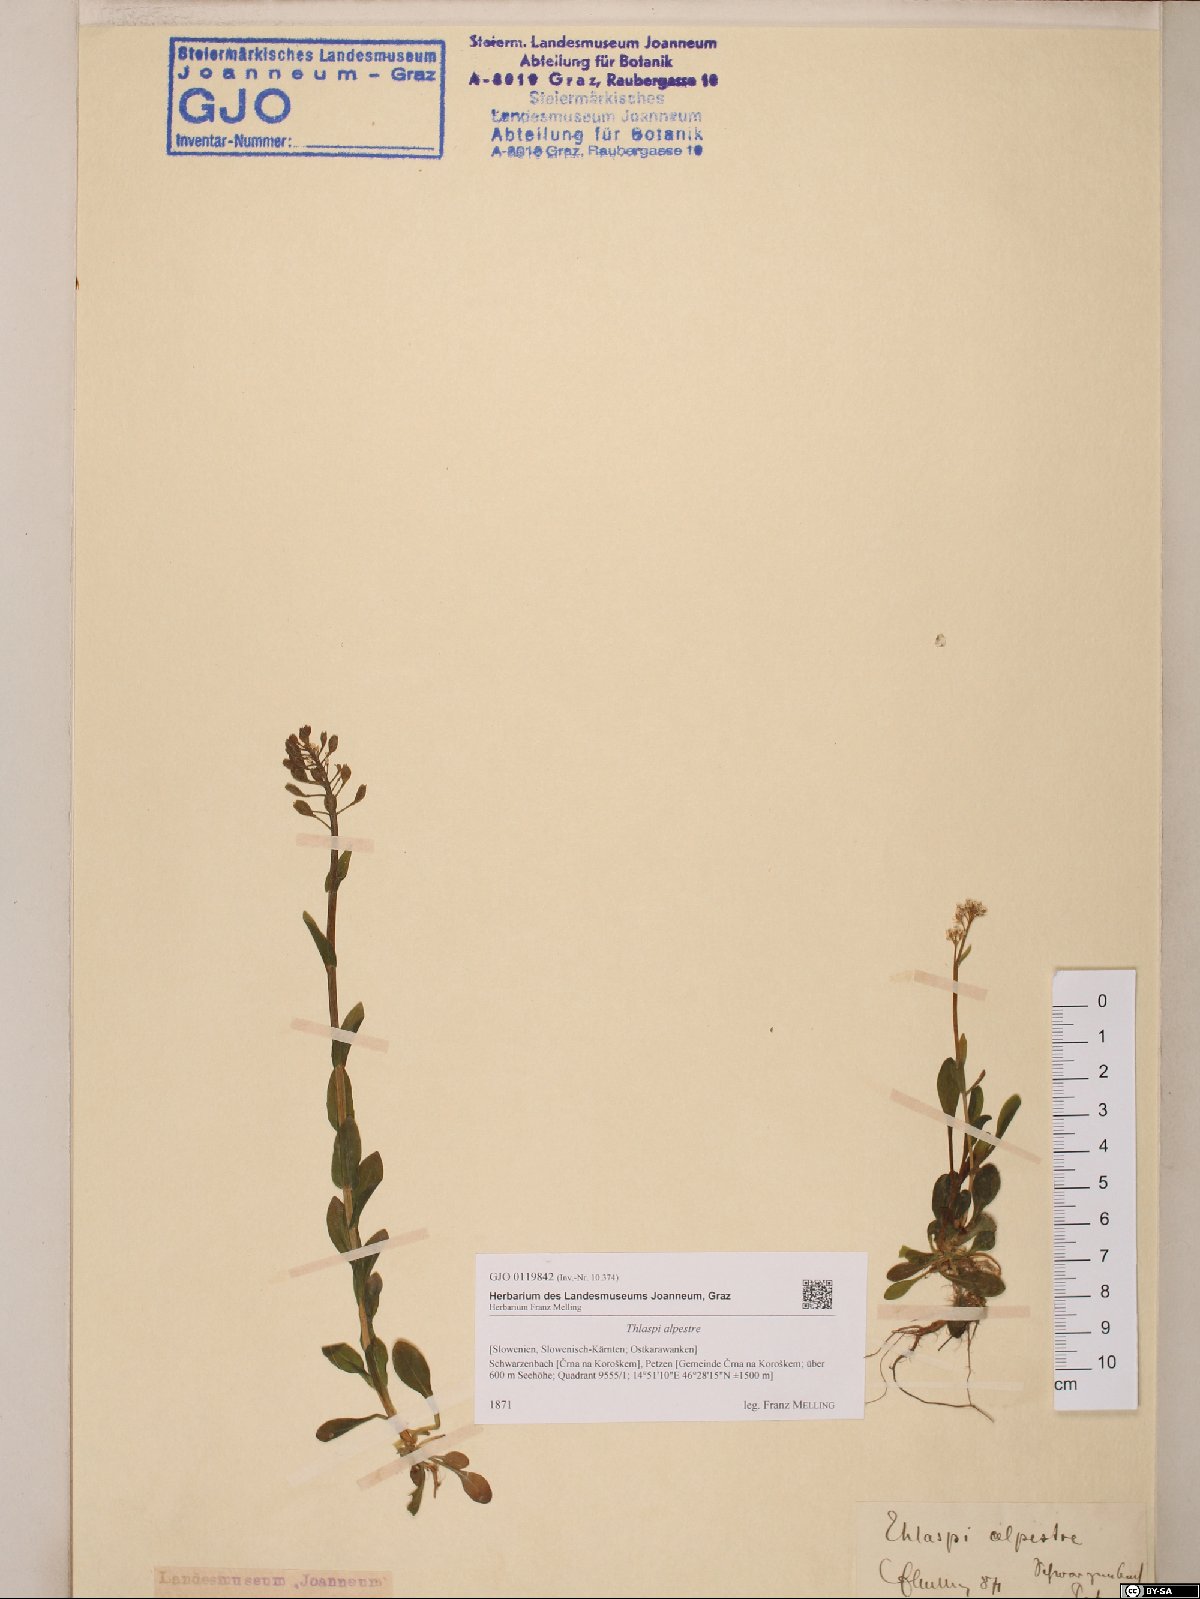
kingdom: Plantae
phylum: Tracheophyta
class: Magnoliopsida
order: Brassicales
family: Brassicaceae
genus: Noccaea
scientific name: Noccaea alpestris
